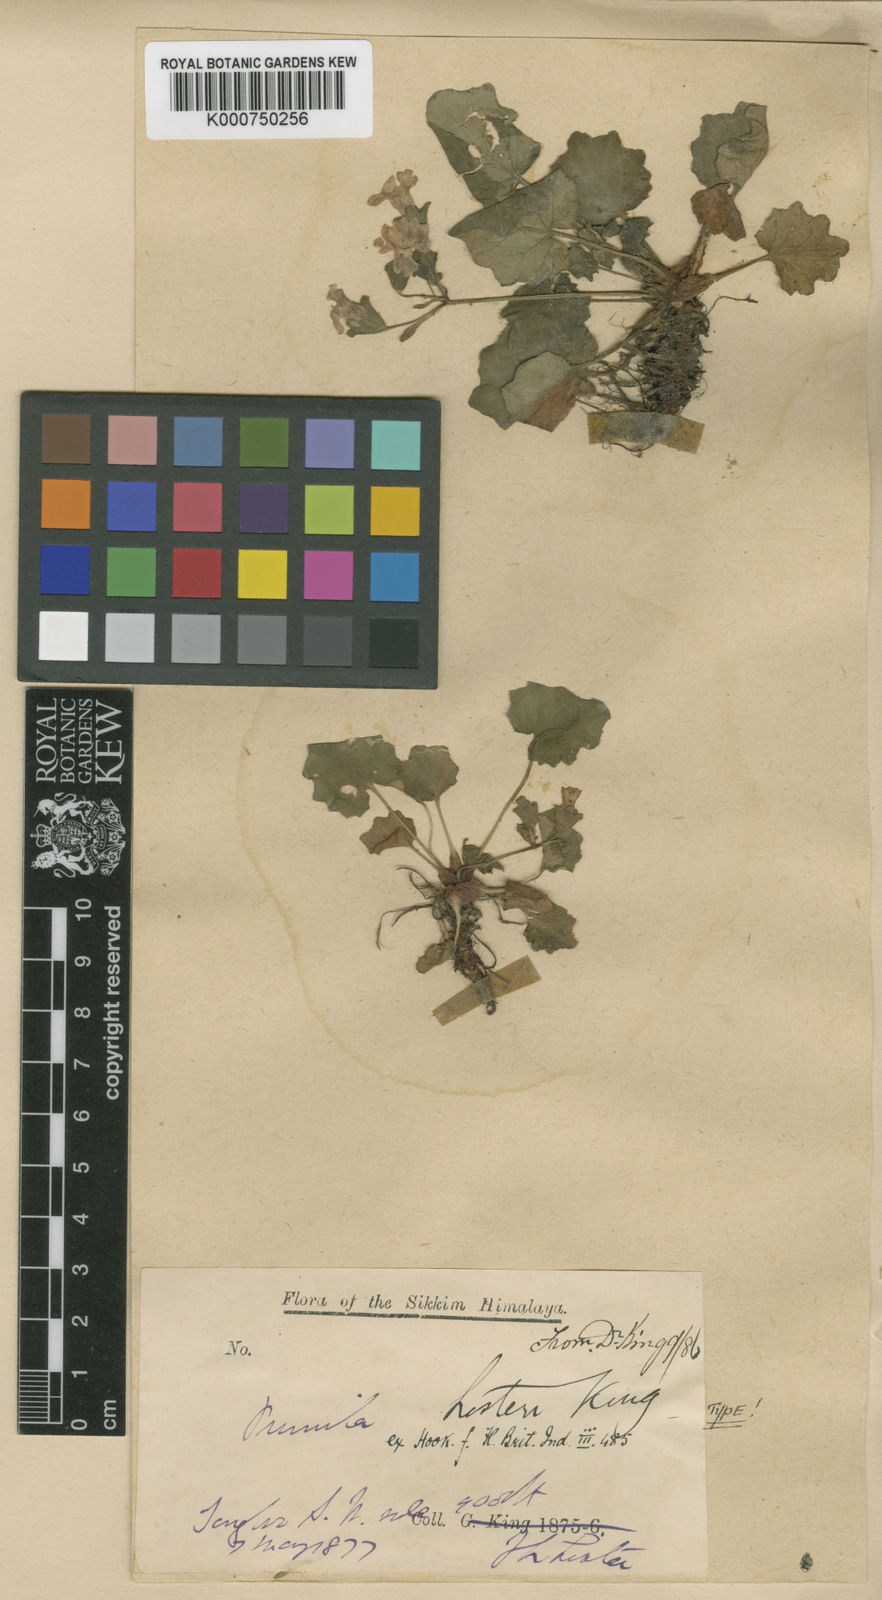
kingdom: Plantae
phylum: Tracheophyta
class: Magnoliopsida
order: Ericales
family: Primulaceae
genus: Primula
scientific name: Primula listeri
